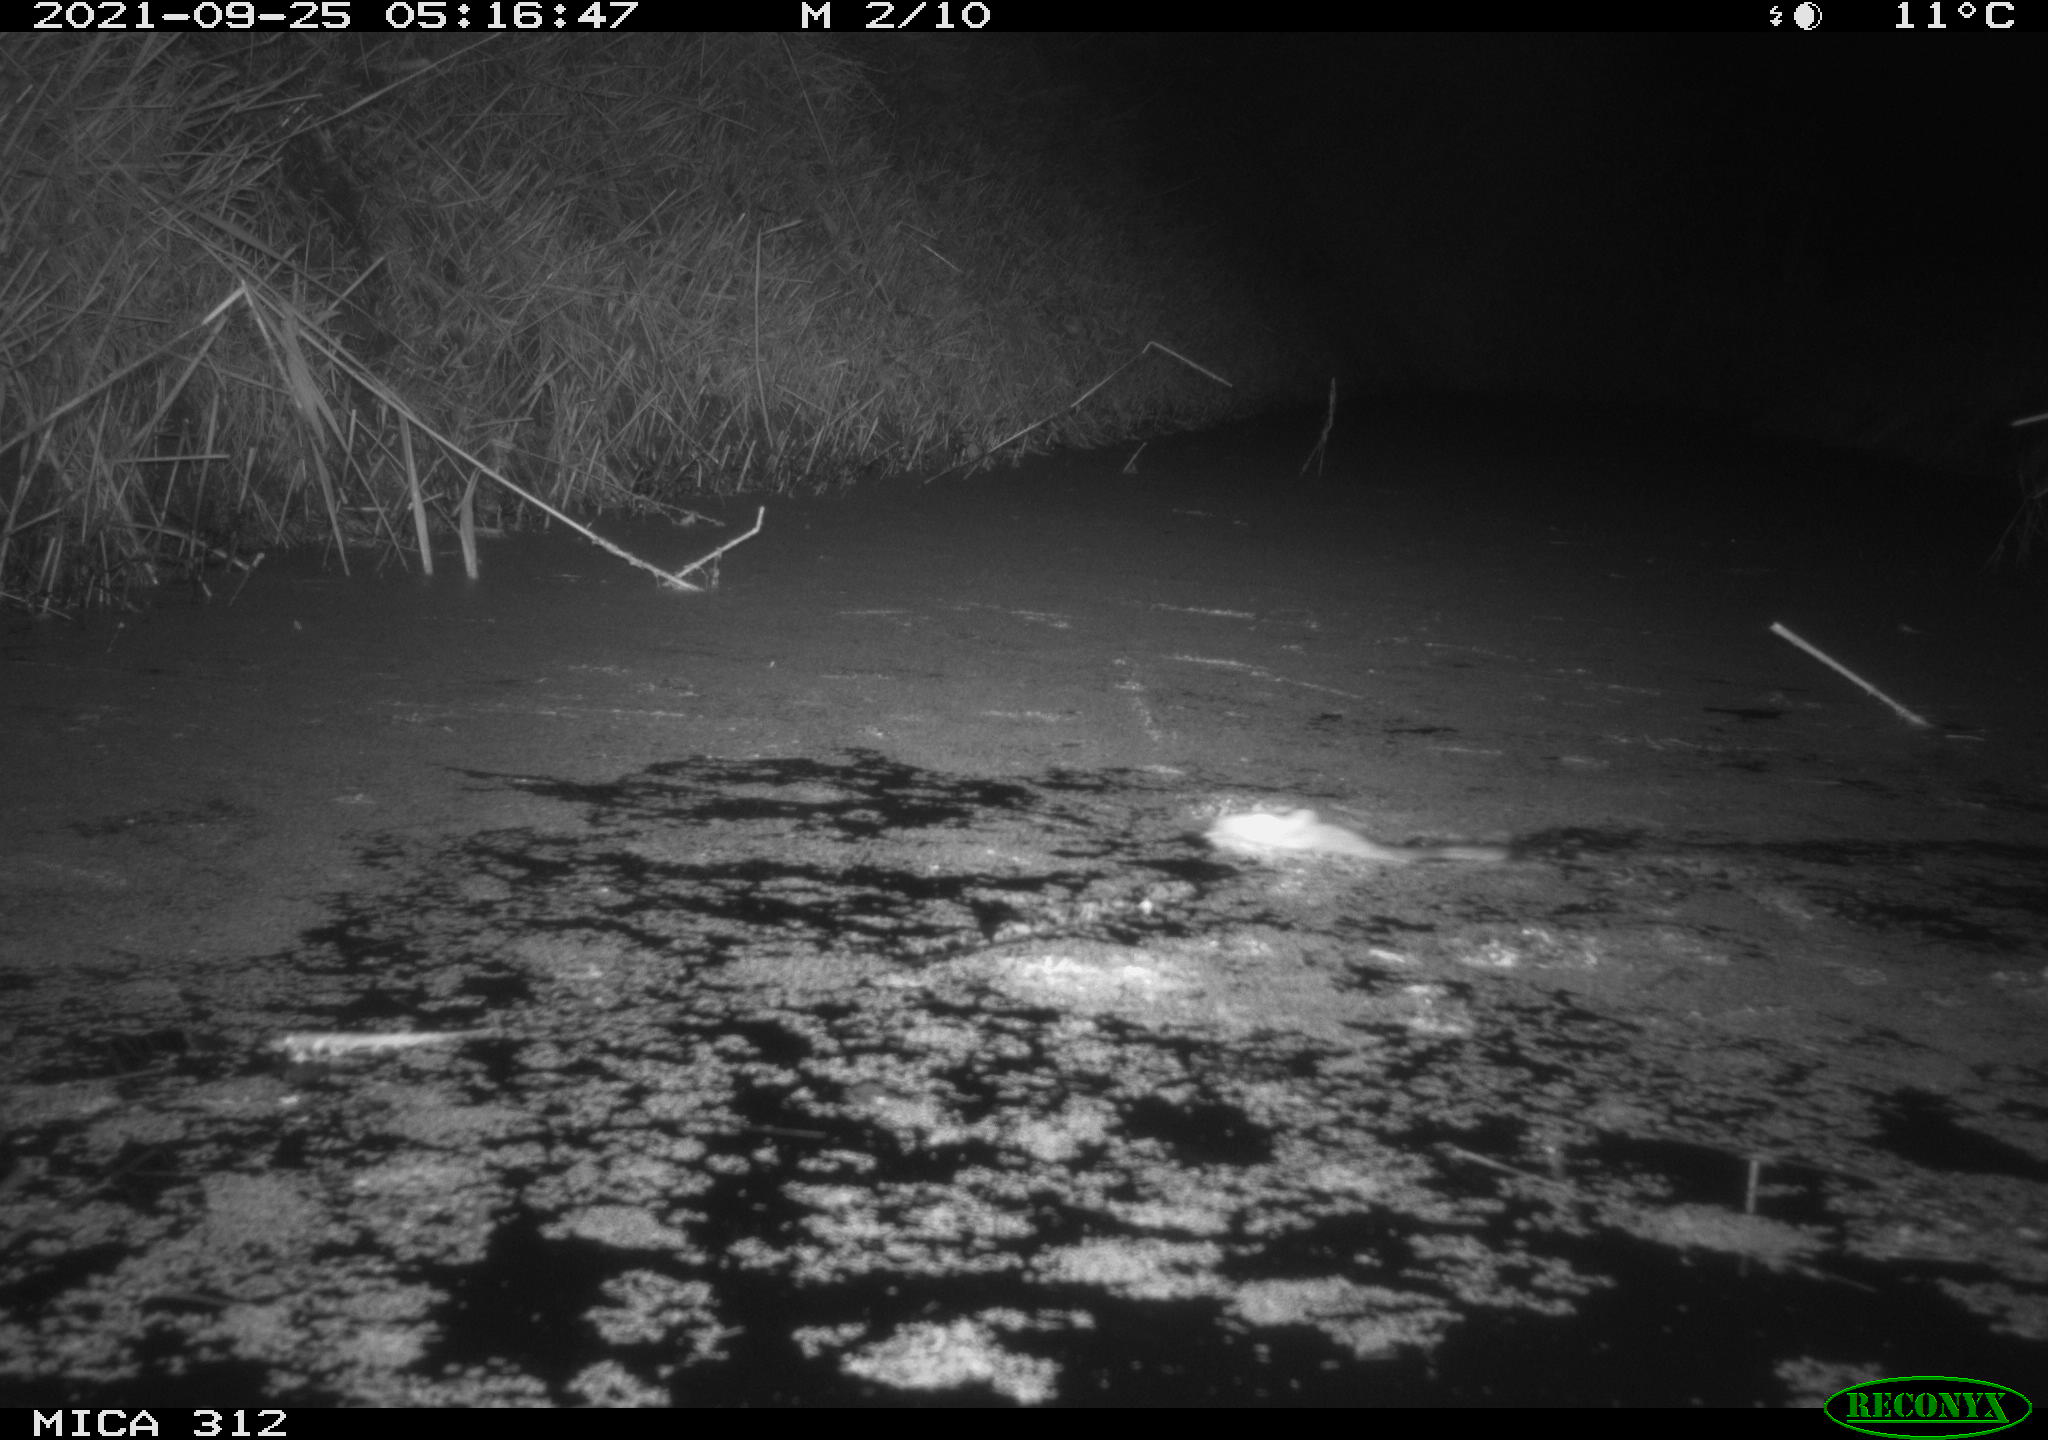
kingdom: Animalia
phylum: Chordata
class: Mammalia
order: Rodentia
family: Muridae
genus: Rattus
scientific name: Rattus norvegicus
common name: Brown rat
